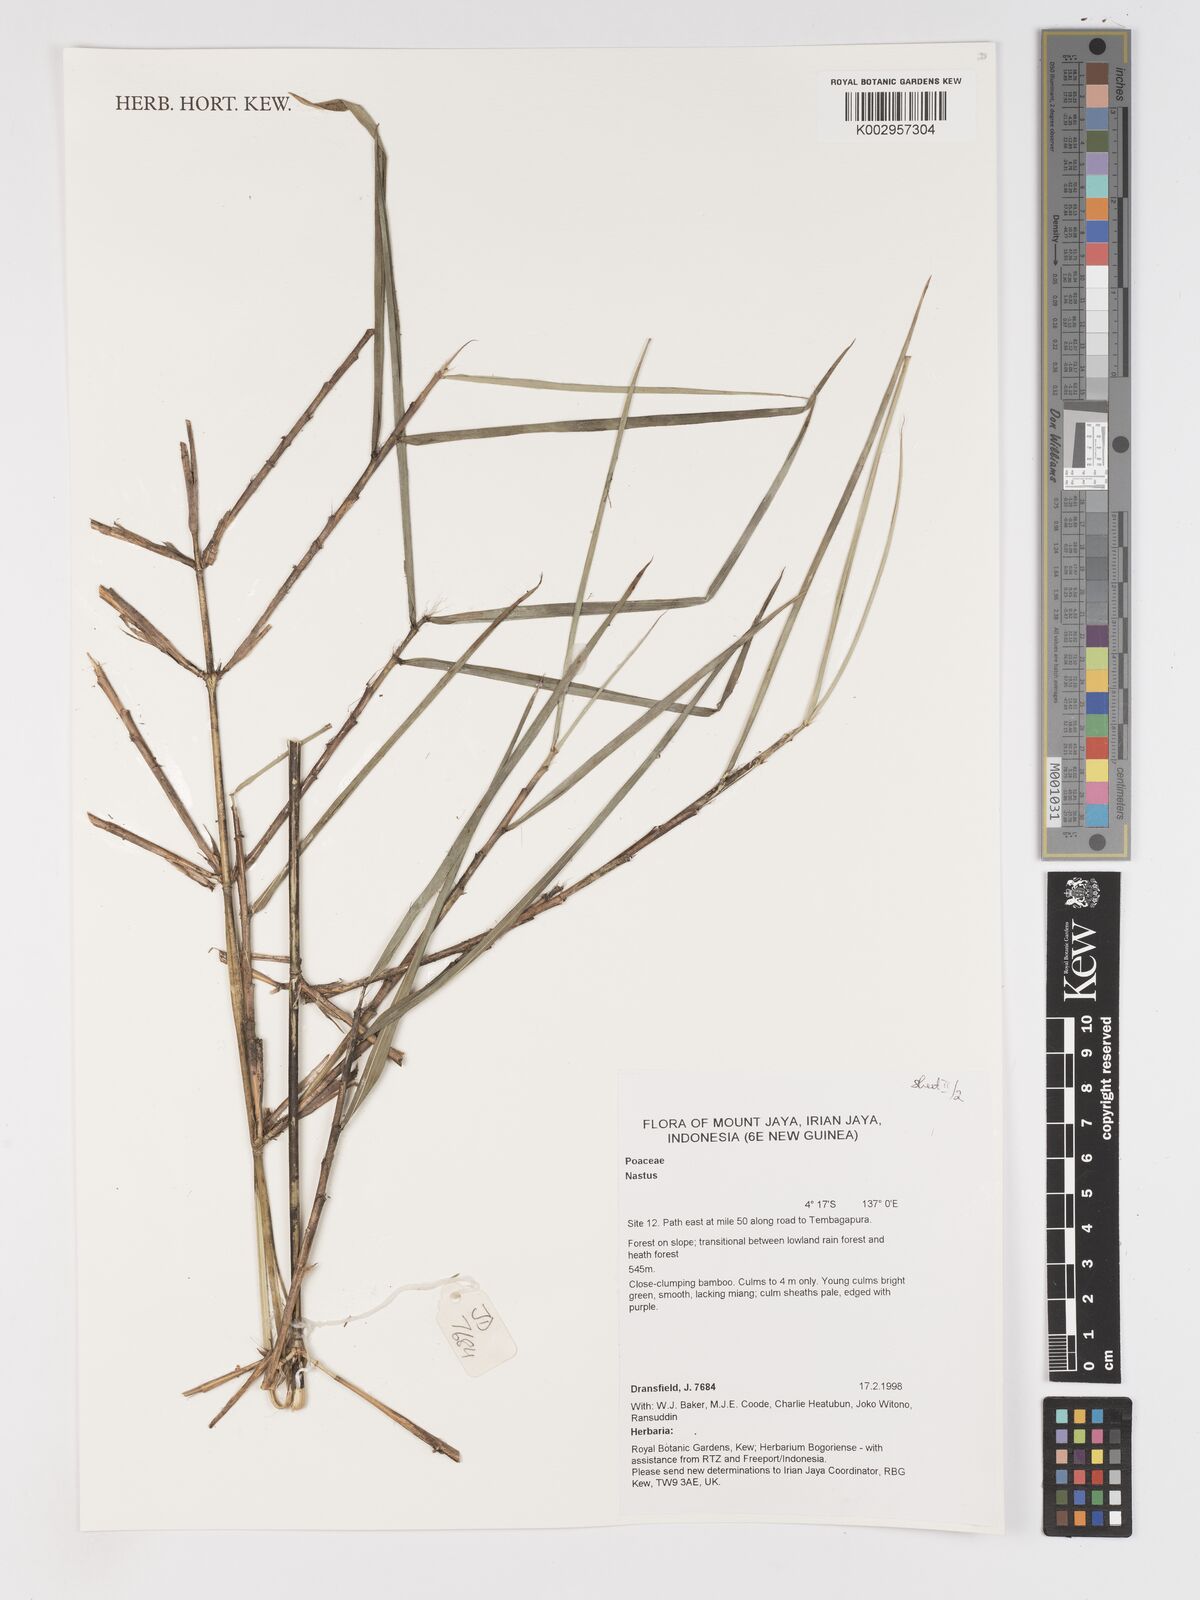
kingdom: Plantae
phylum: Tracheophyta
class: Liliopsida
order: Poales
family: Poaceae
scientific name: Poaceae
